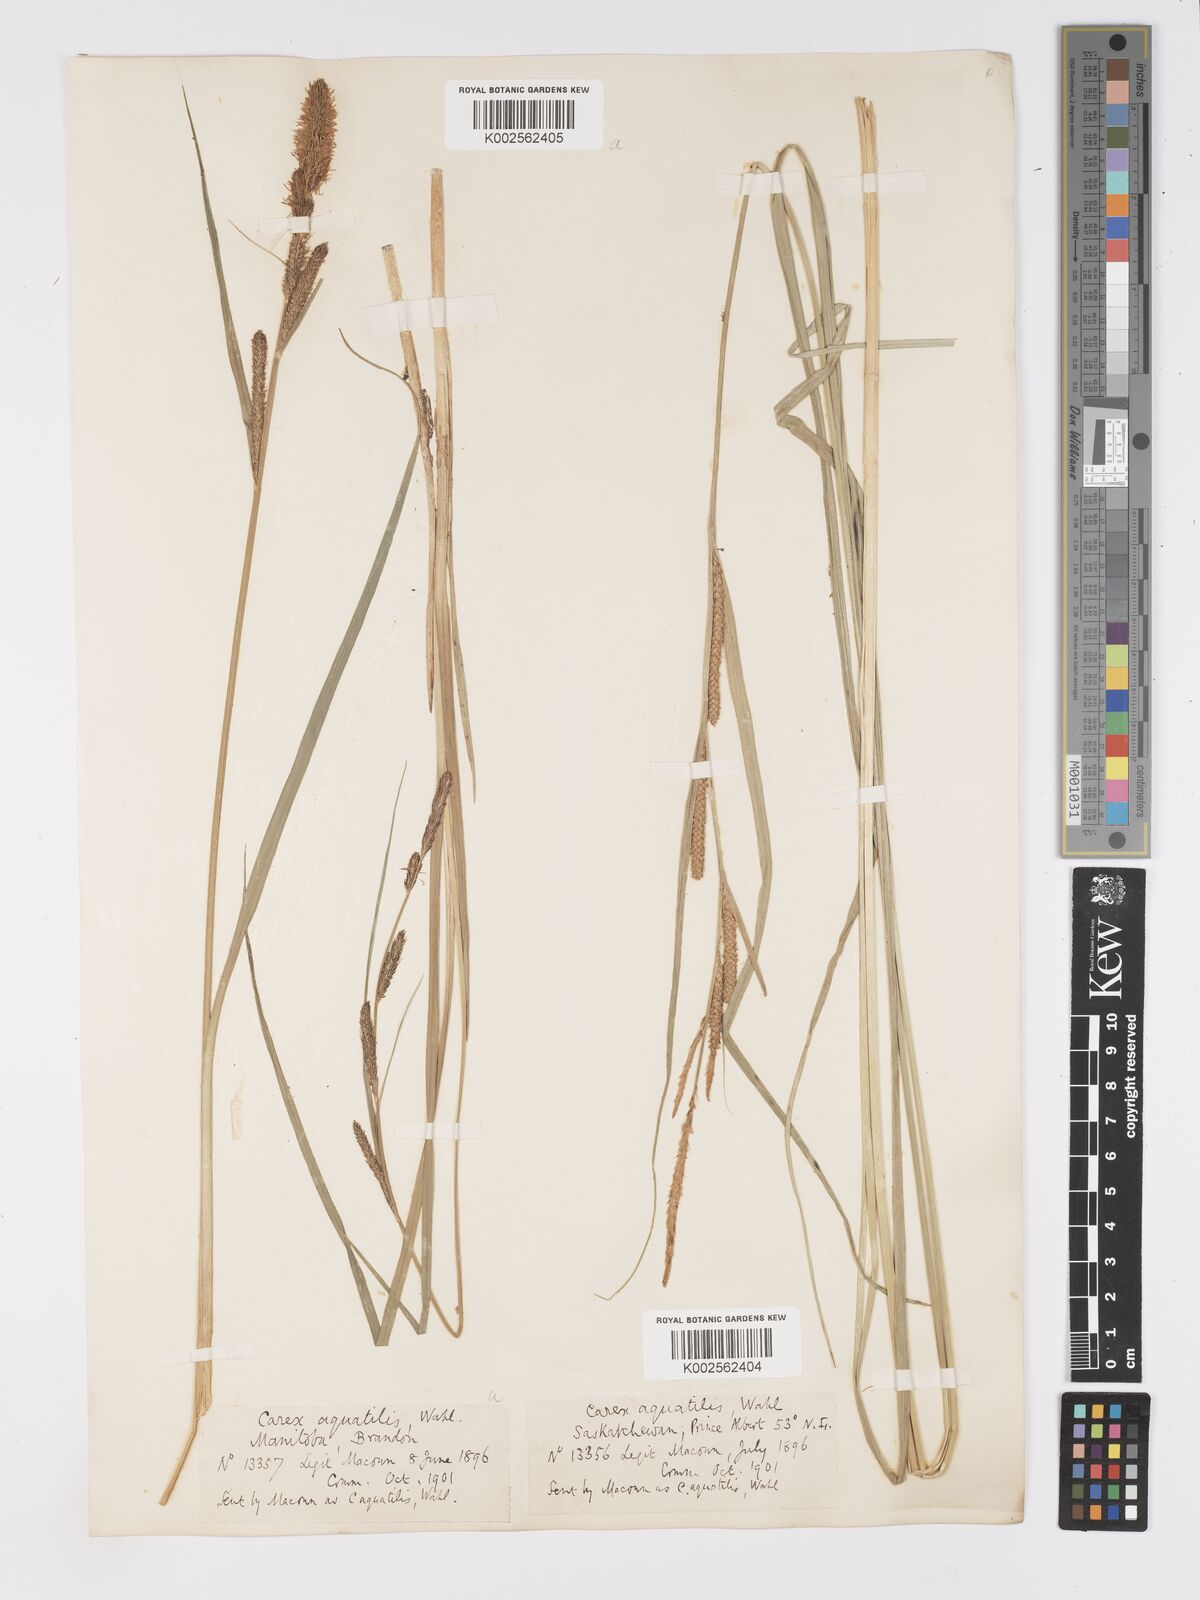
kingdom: Plantae
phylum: Tracheophyta
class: Liliopsida
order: Poales
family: Cyperaceae
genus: Carex
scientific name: Carex aquatilis
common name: Water sedge
